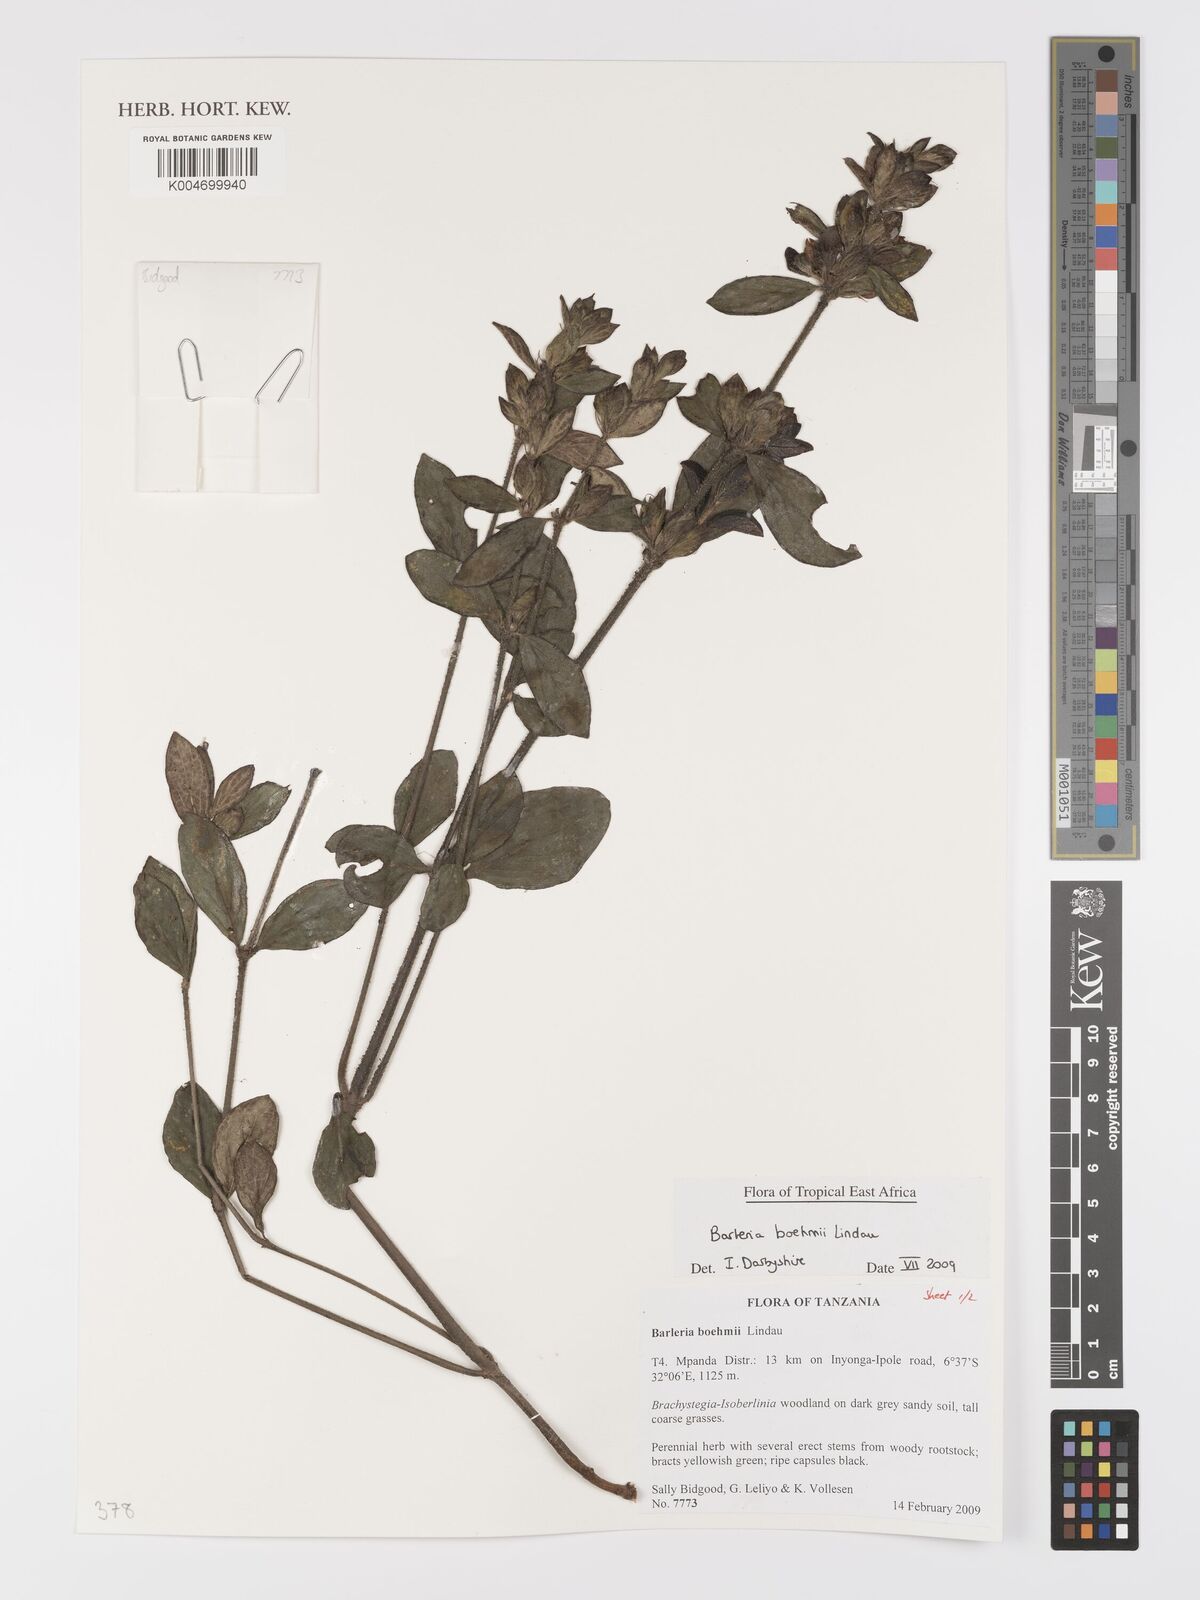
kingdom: Plantae
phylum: Tracheophyta
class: Magnoliopsida
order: Lamiales
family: Acanthaceae
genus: Barleria
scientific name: Barleria boehmii
